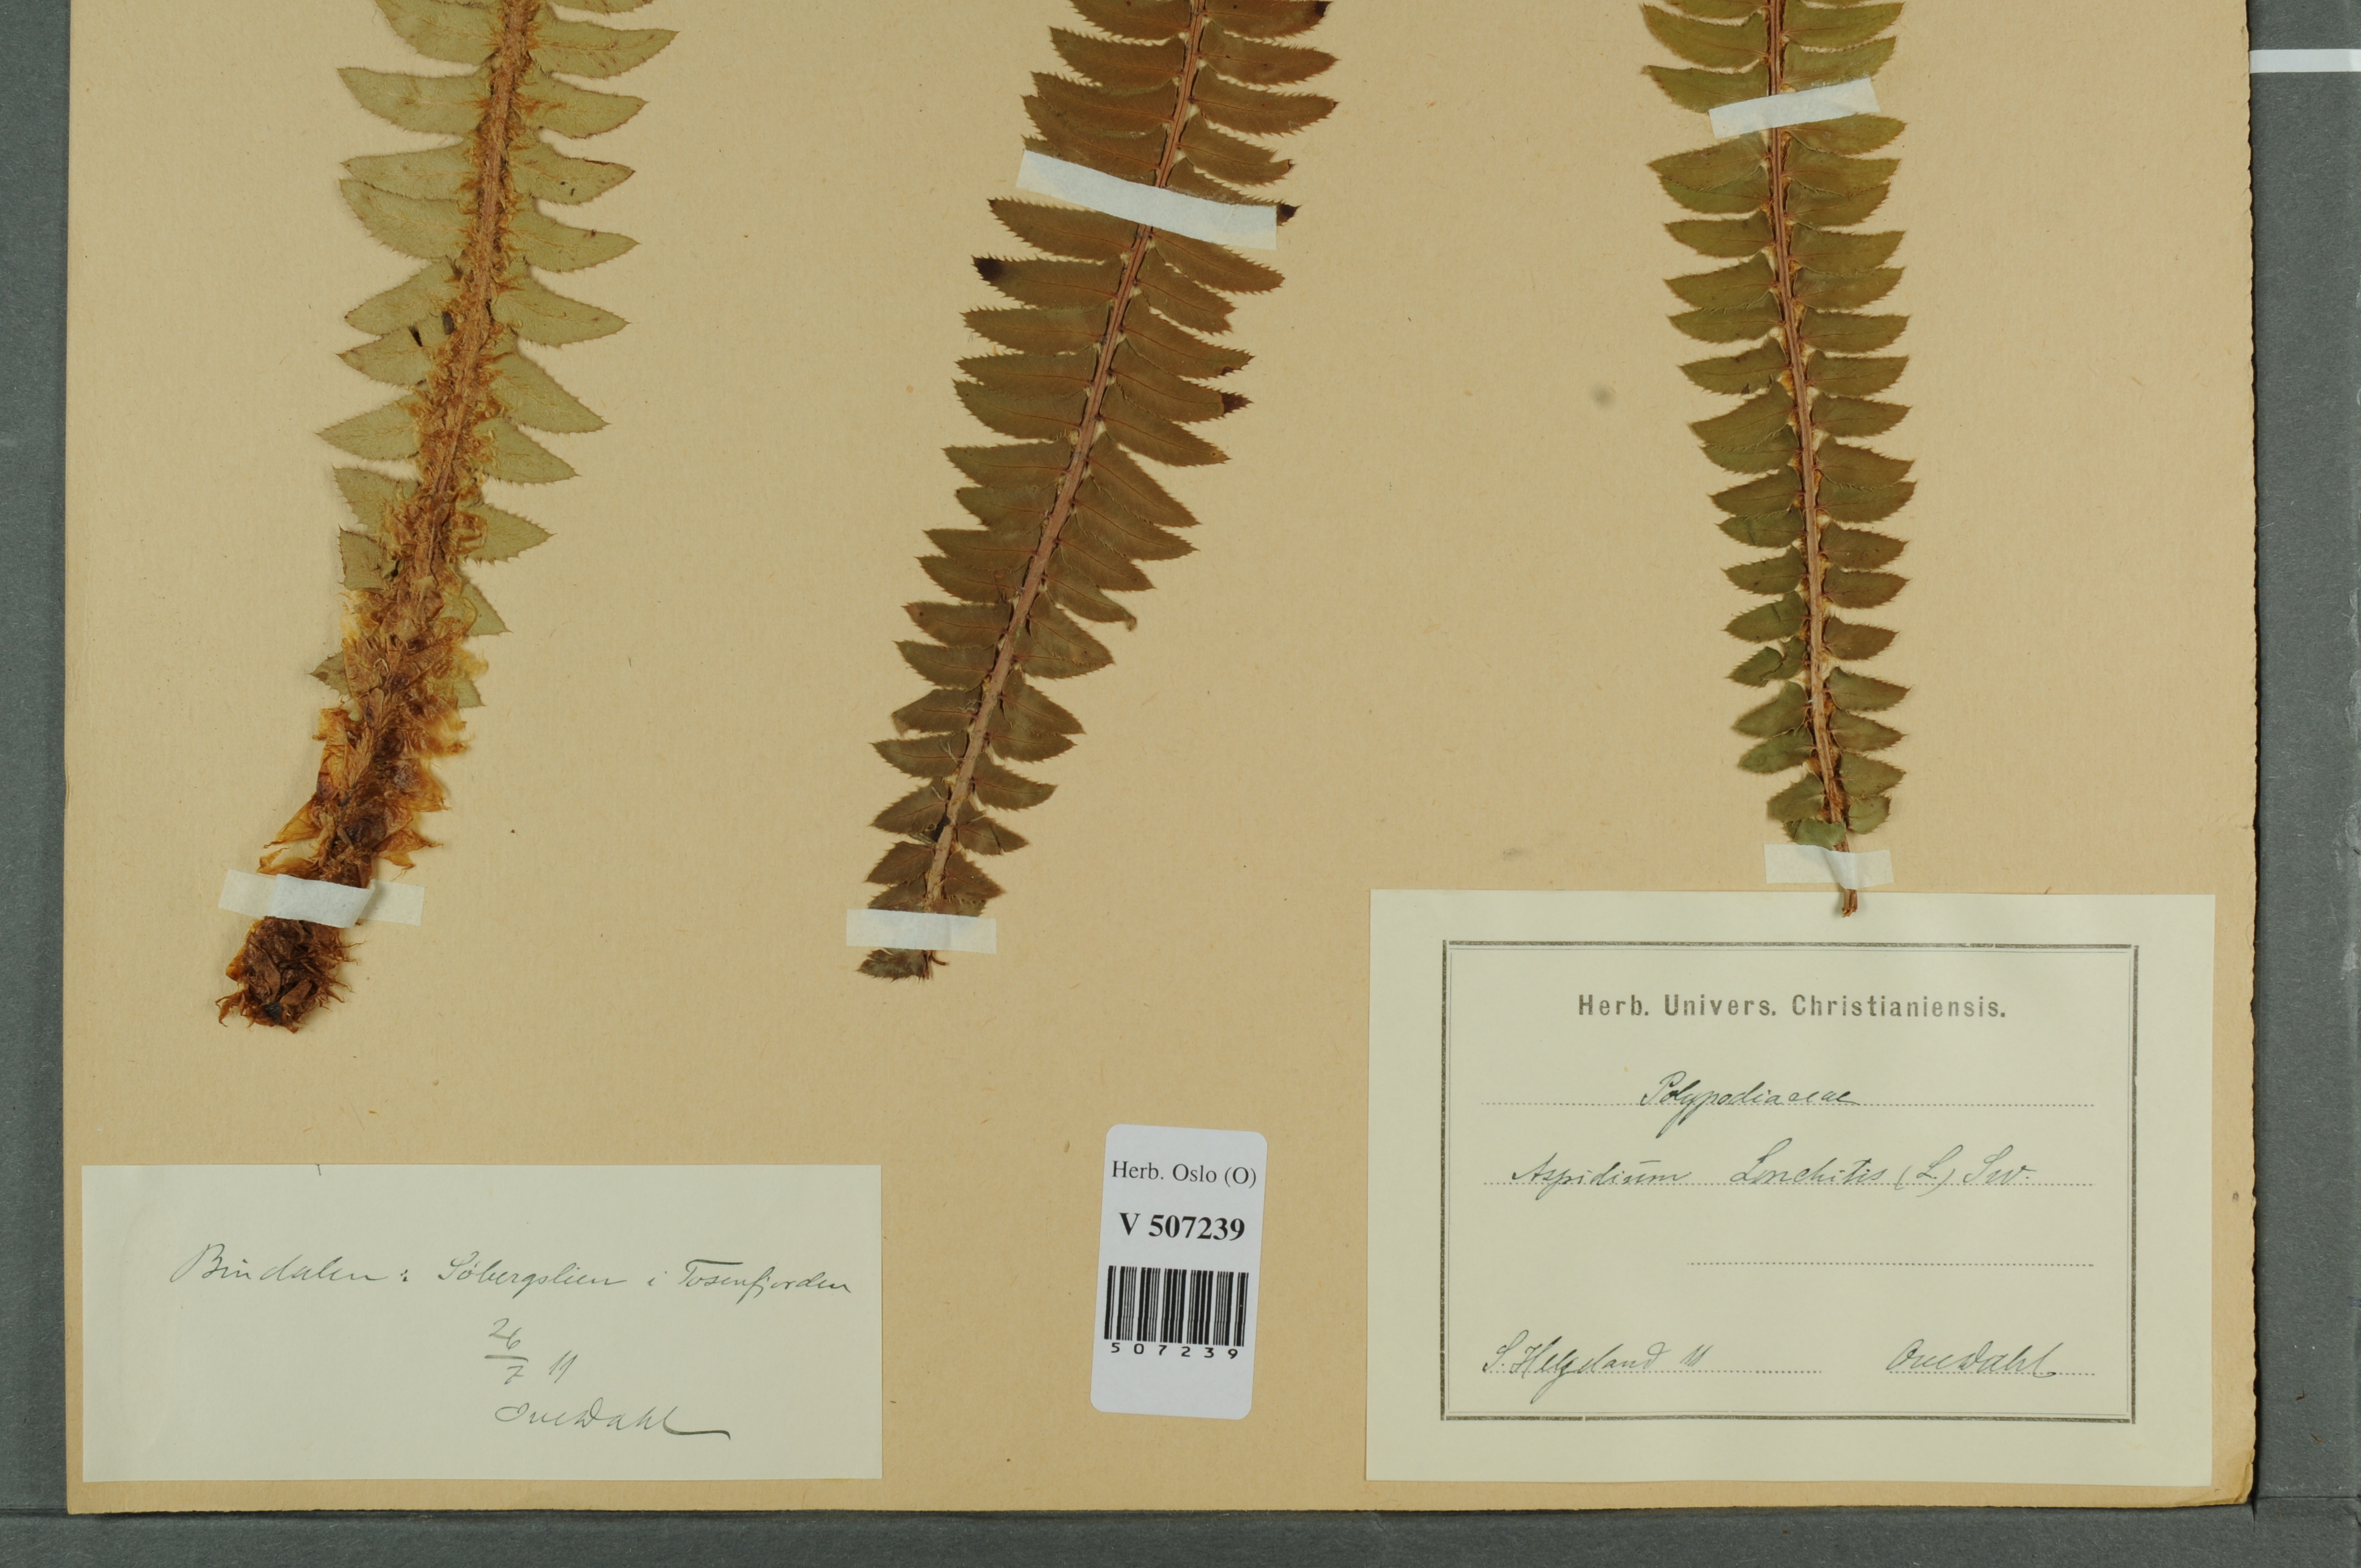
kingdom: Plantae
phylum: Tracheophyta
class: Polypodiopsida
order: Polypodiales
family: Dryopteridaceae
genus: Polystichum
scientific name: Polystichum lonchitis
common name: Holly fern
